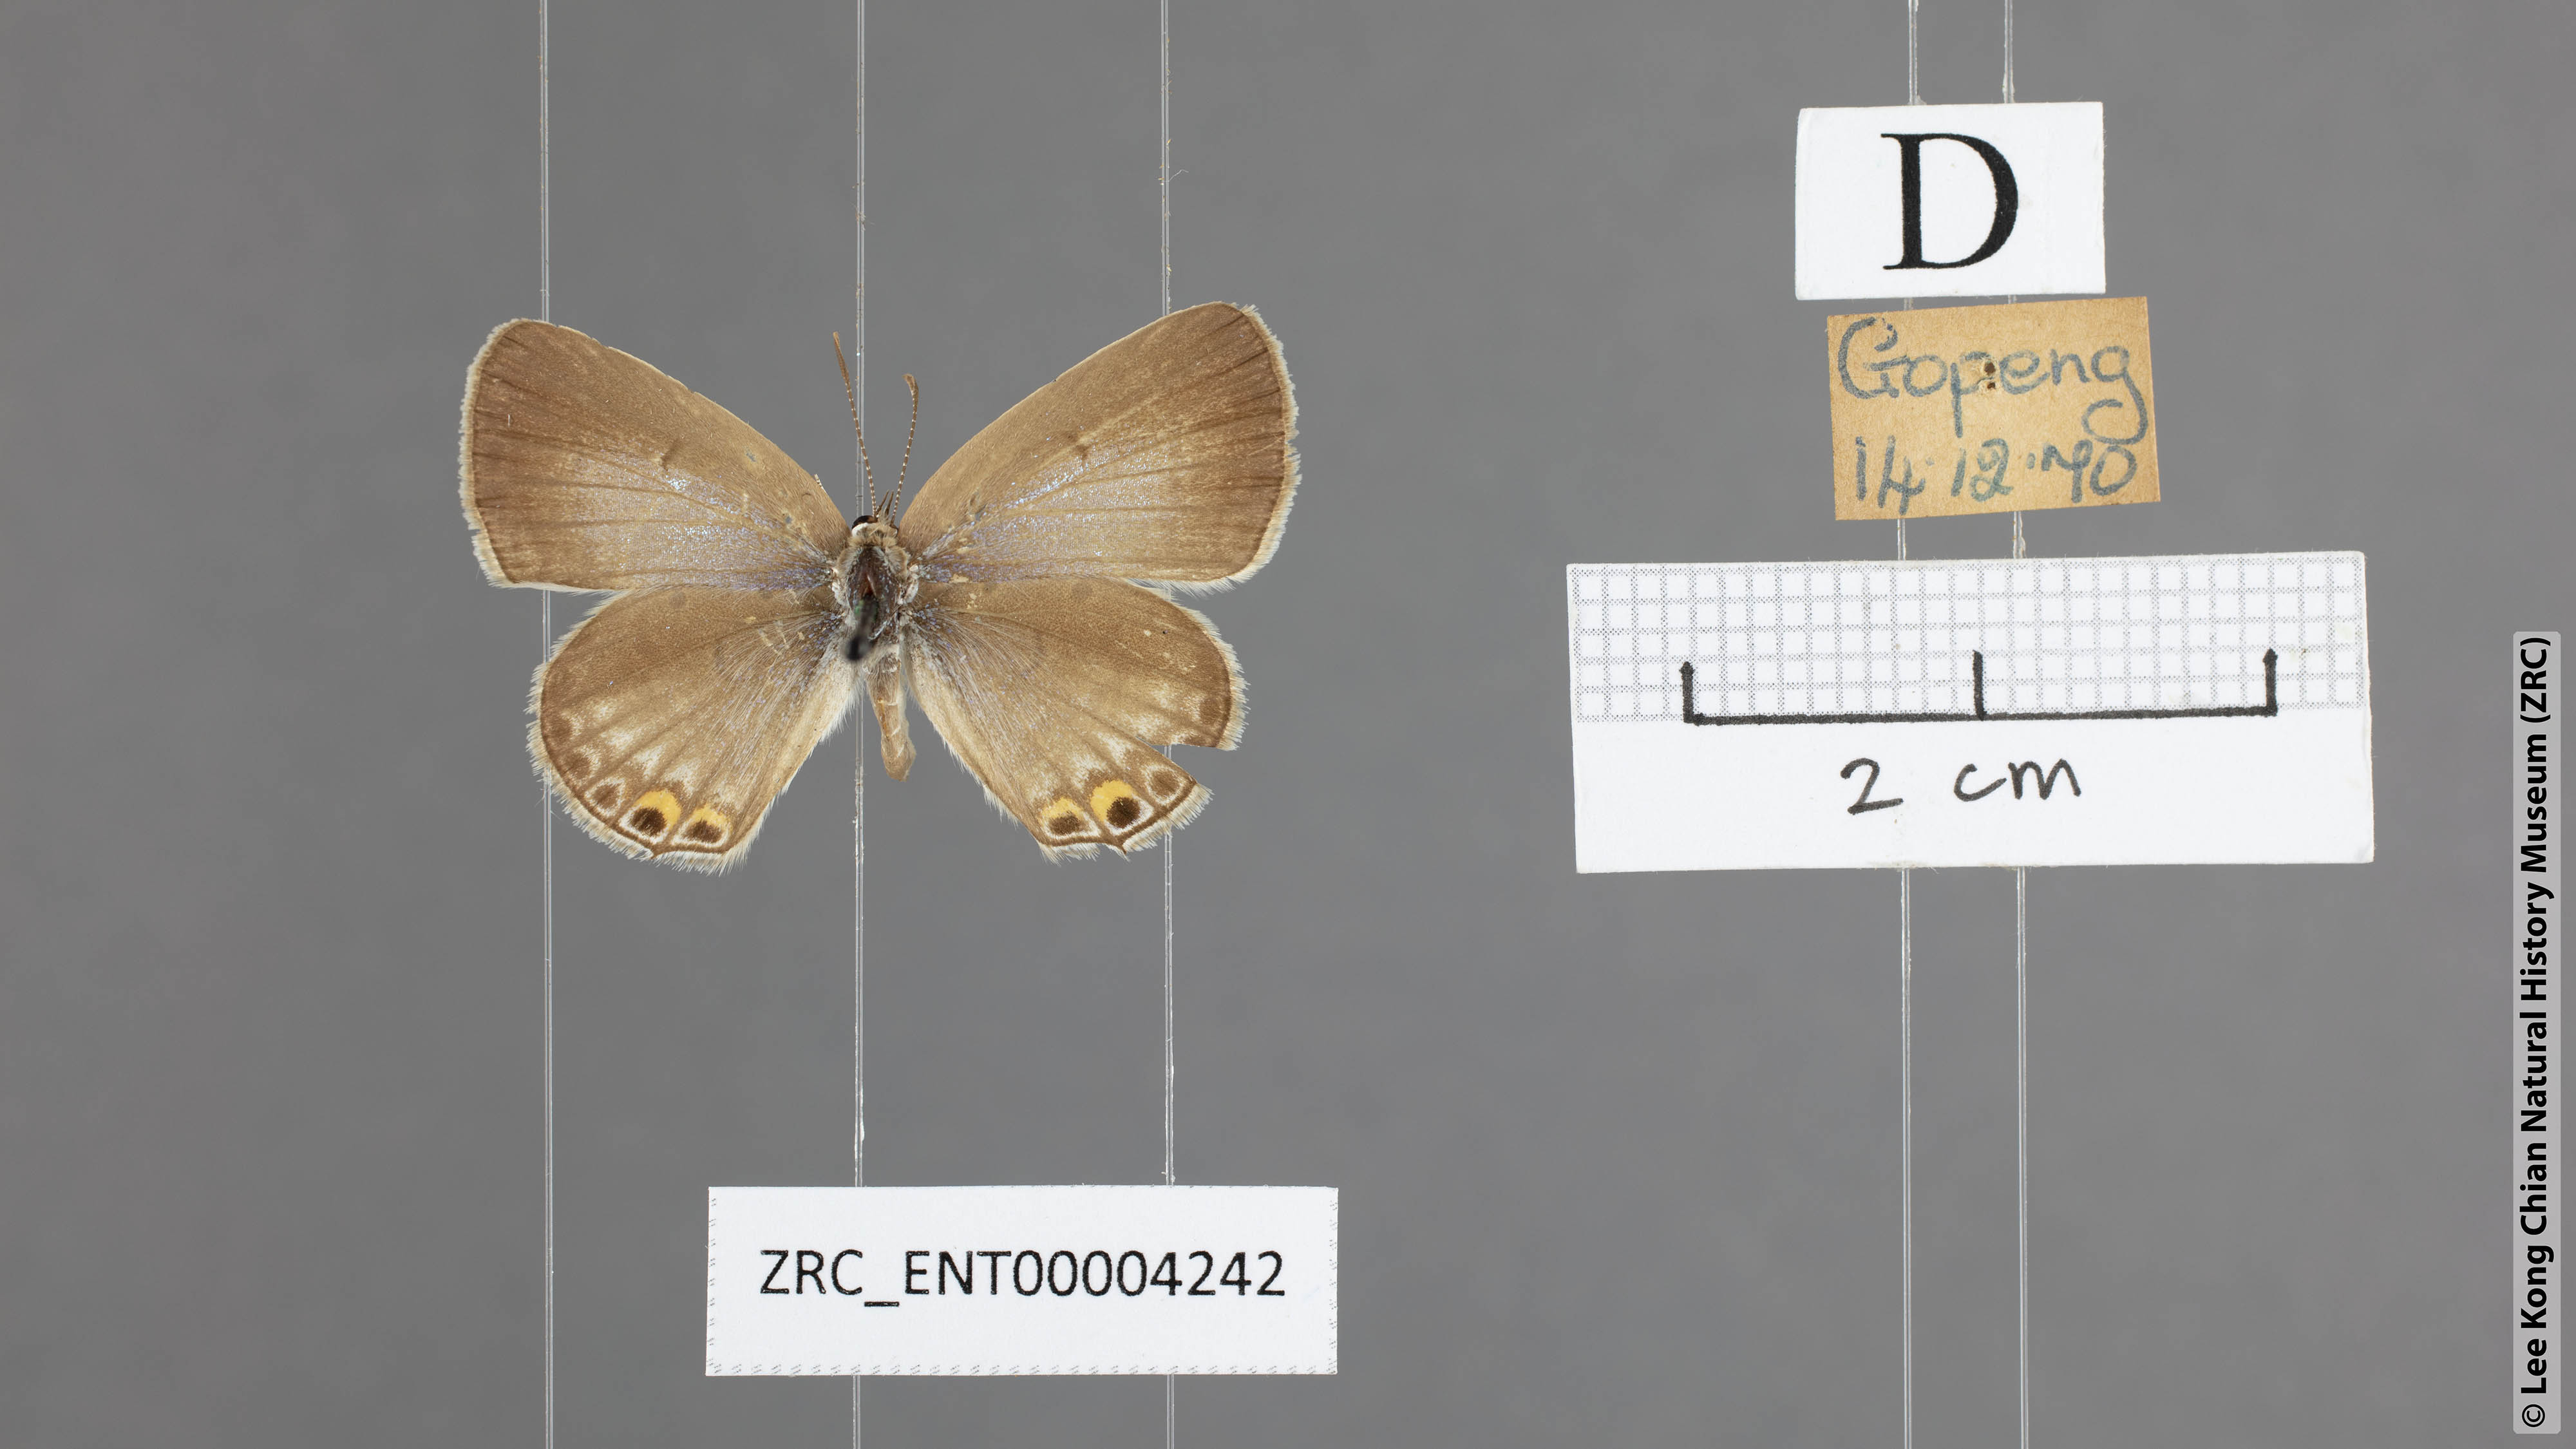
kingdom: Animalia
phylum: Arthropoda
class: Insecta
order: Lepidoptera
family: Lycaenidae
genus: Euchrysops
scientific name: Euchrysops cnejus
